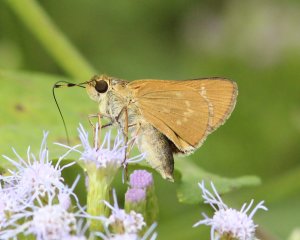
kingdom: Animalia
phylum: Arthropoda
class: Insecta
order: Lepidoptera
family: Hesperiidae
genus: Mellana
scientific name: Mellana eulogius
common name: Common Mellana
